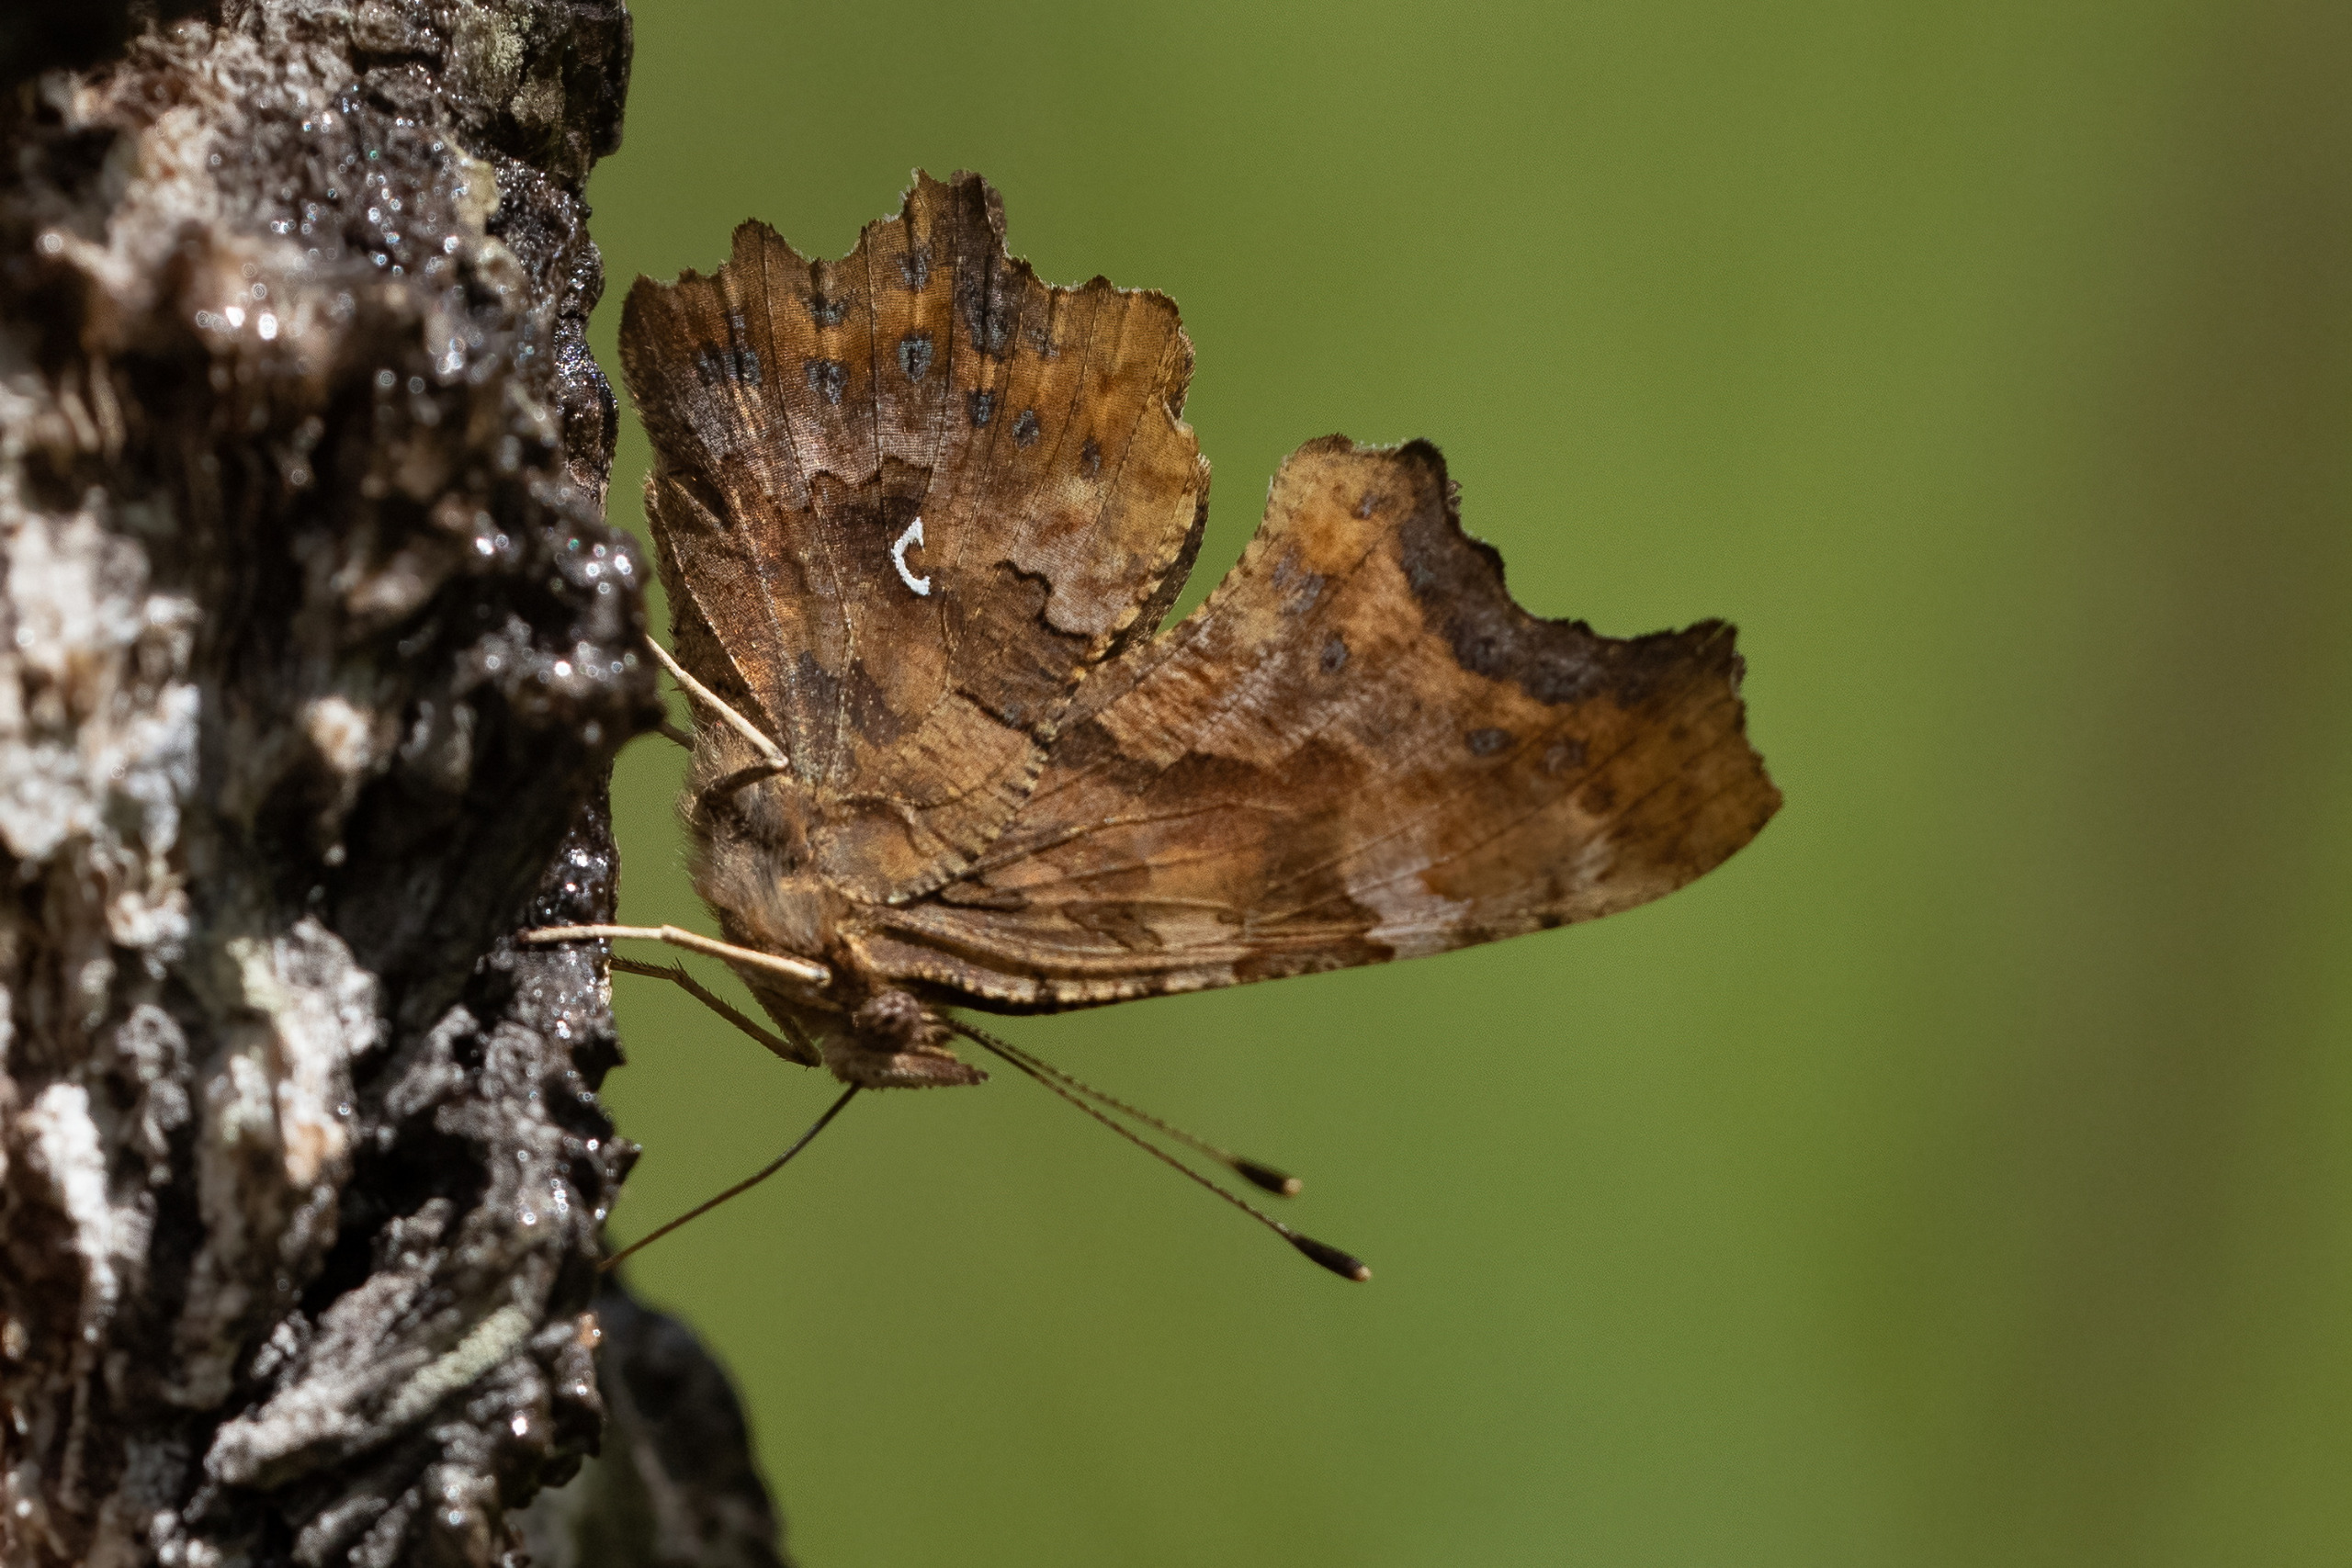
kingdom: Animalia
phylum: Arthropoda
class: Insecta
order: Lepidoptera
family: Nymphalidae
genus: Polygonia
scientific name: Polygonia c-album
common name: Det hvide C
